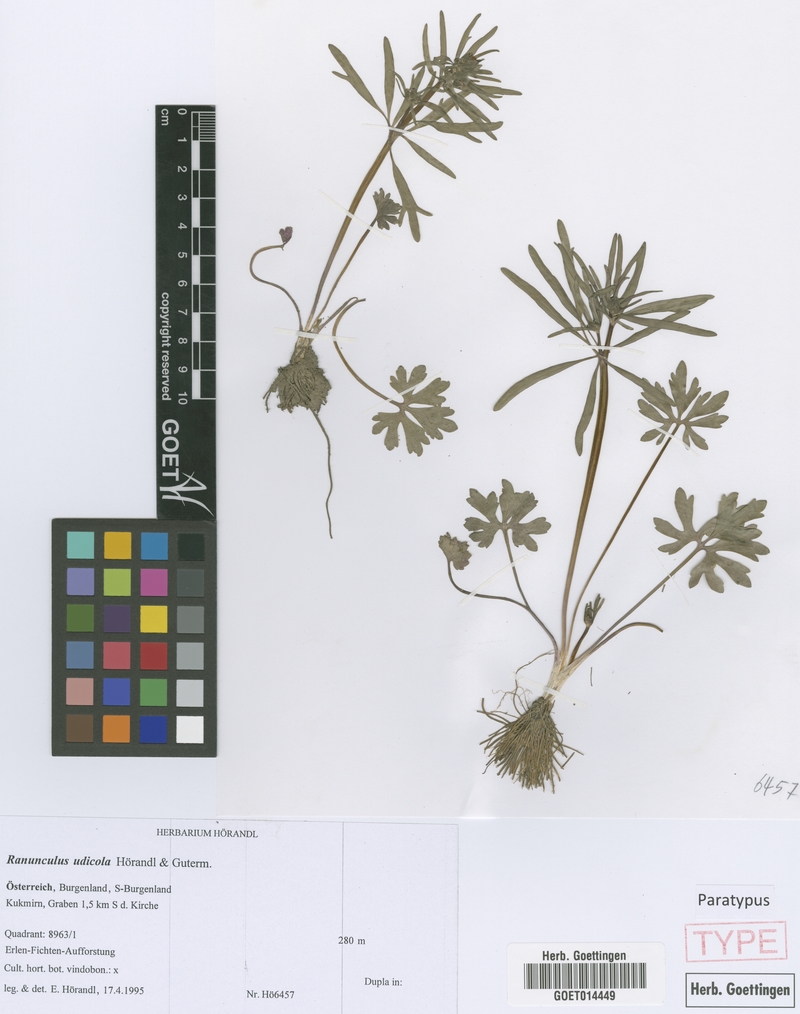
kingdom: Plantae
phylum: Tracheophyta
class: Magnoliopsida
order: Ranunculales
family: Ranunculaceae
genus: Ranunculus
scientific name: Ranunculus udicola
